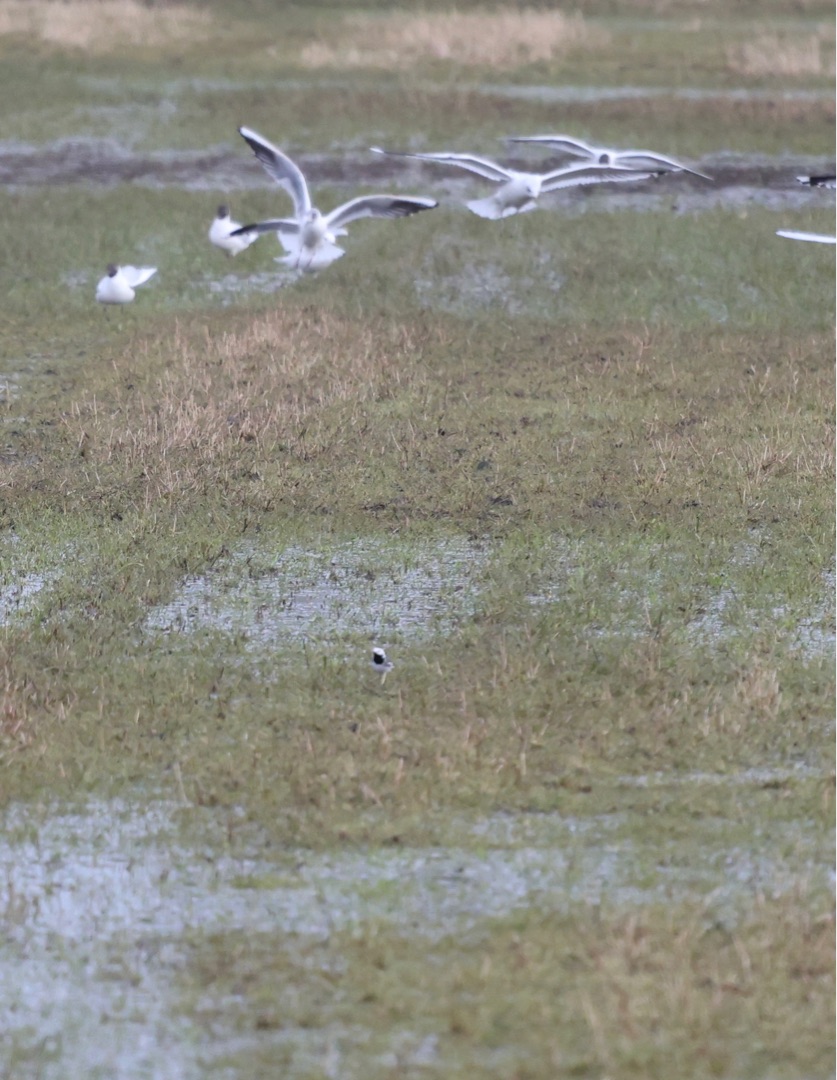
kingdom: Animalia
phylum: Chordata
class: Aves
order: Passeriformes
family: Motacillidae
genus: Motacilla
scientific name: Motacilla alba
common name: Hvid vipstjert
